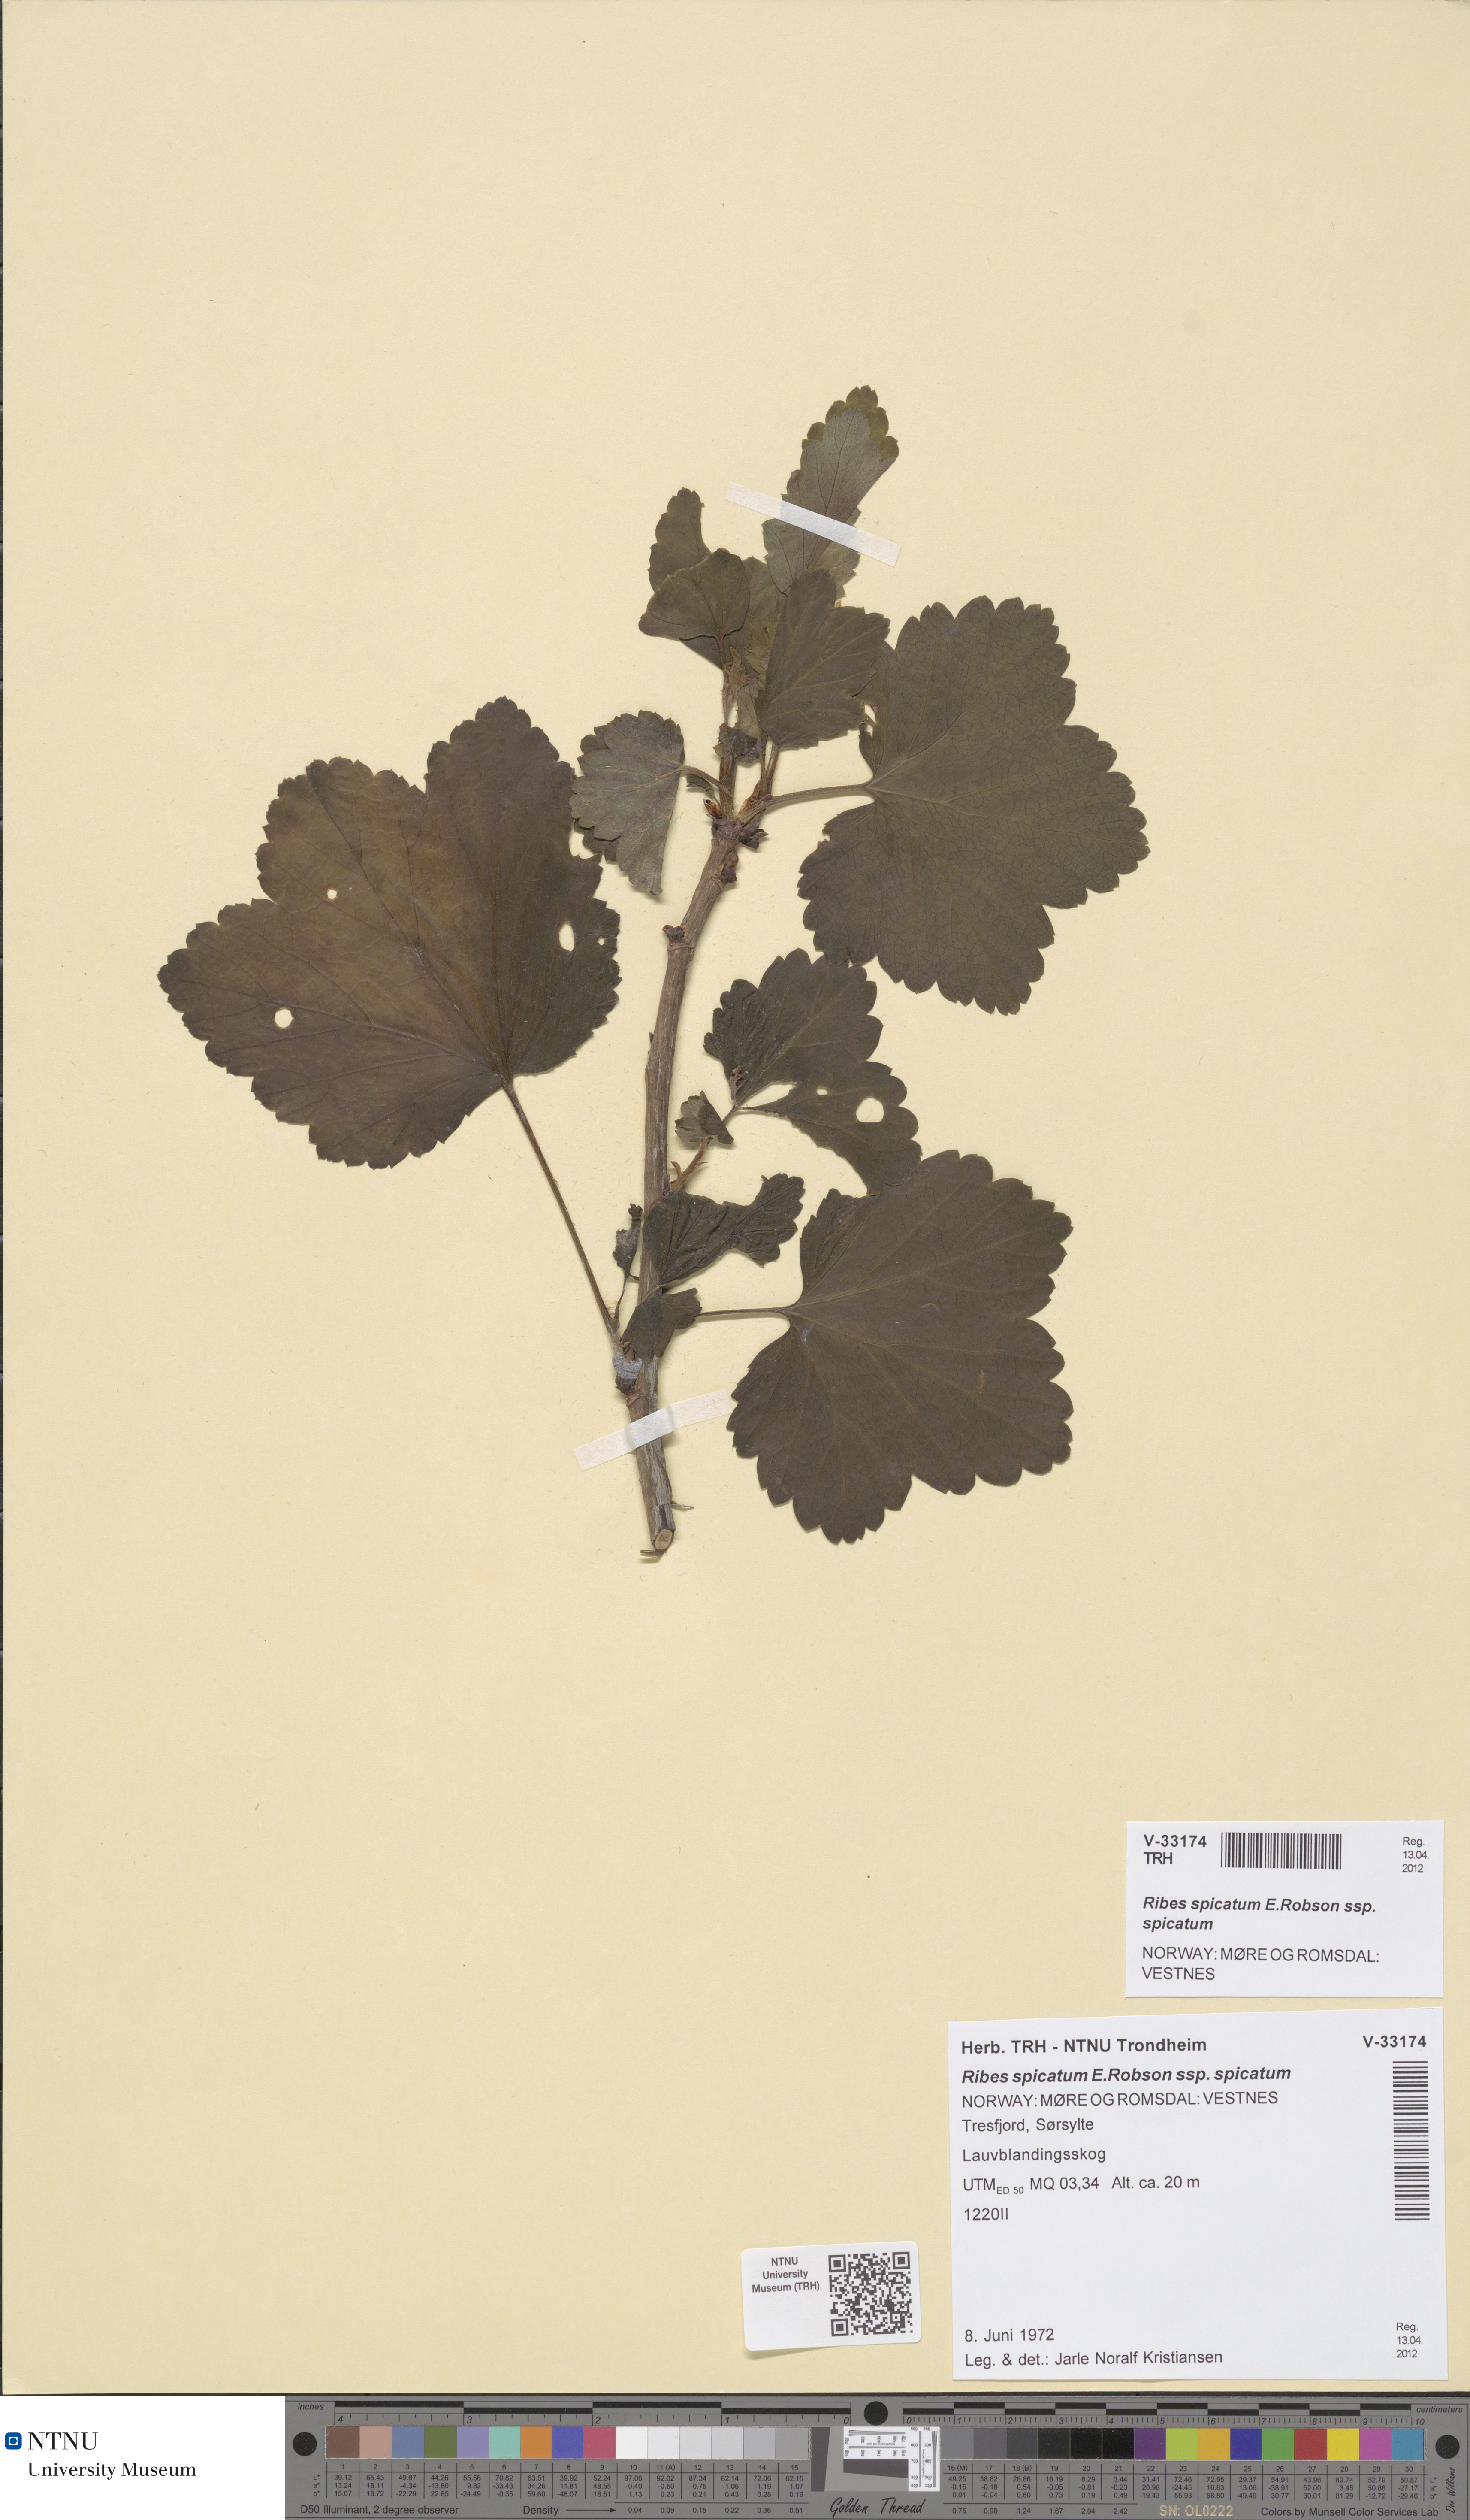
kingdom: Plantae
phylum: Tracheophyta
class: Magnoliopsida
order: Saxifragales
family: Grossulariaceae
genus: Ribes
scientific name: Ribes spicatum
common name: Downy currant
